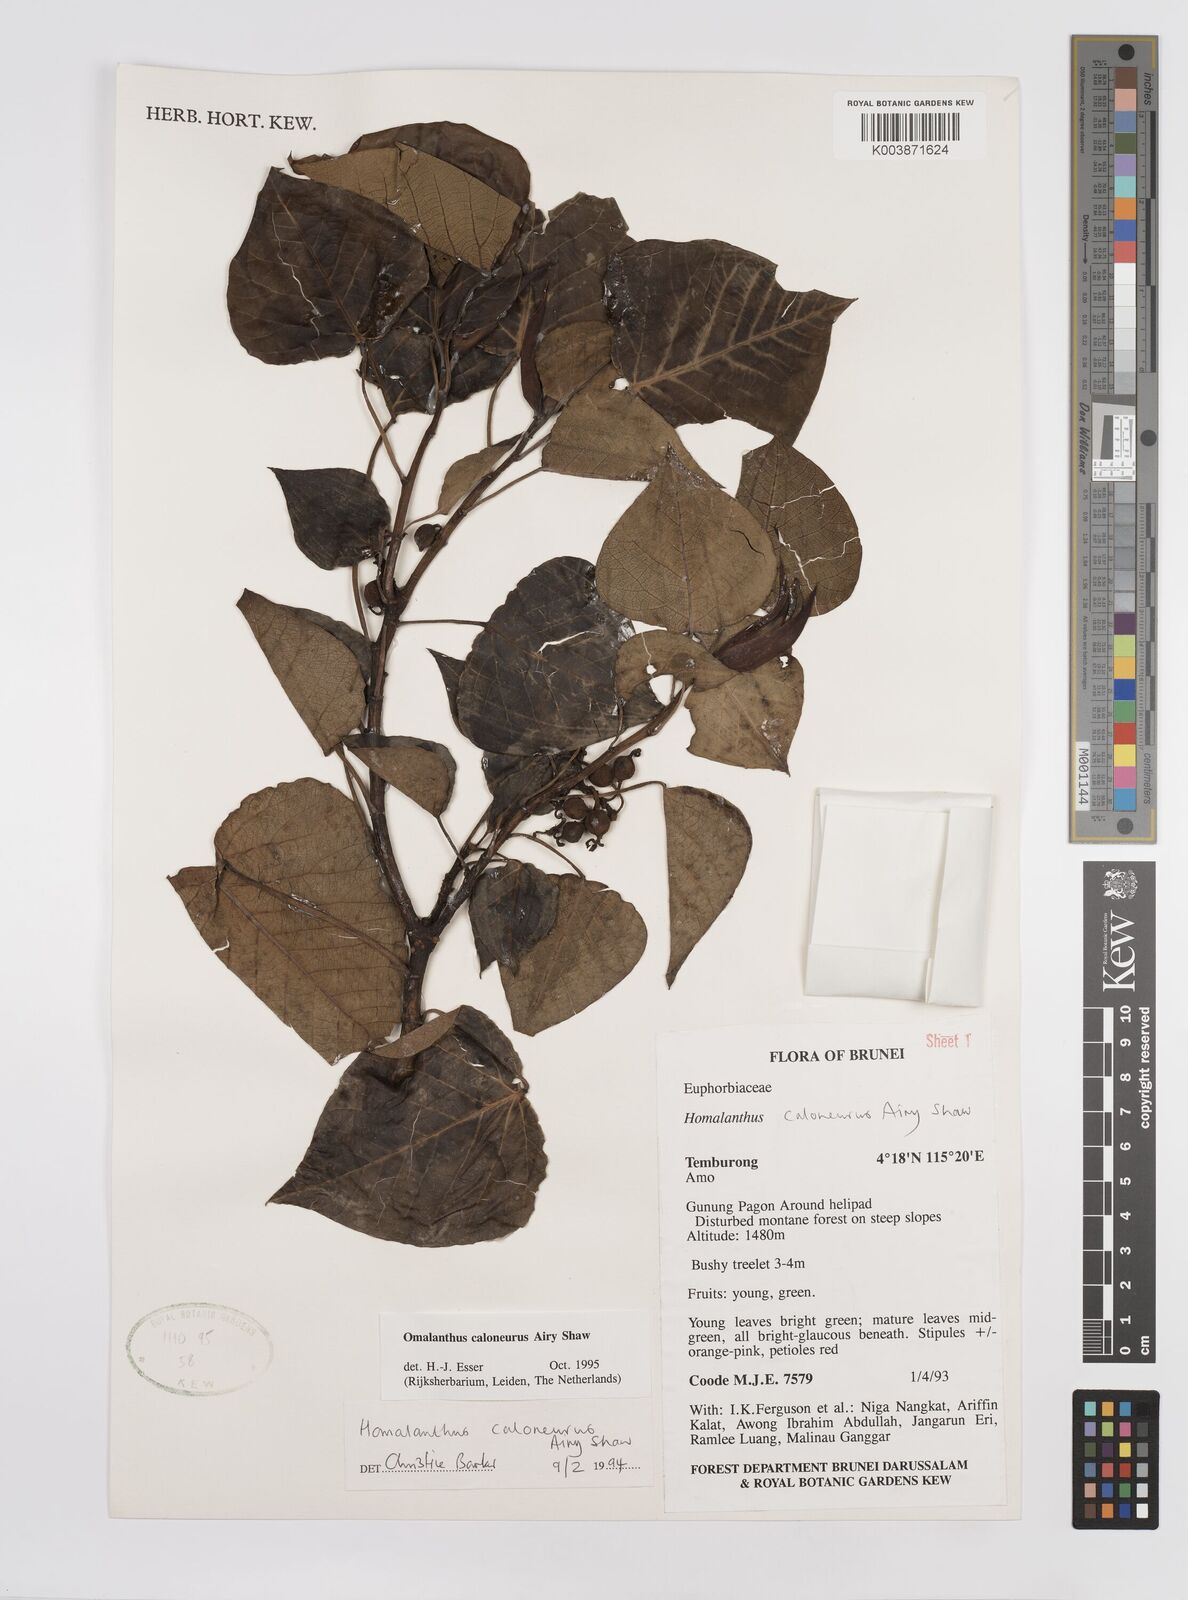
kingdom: Plantae
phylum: Tracheophyta
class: Magnoliopsida
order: Malpighiales
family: Euphorbiaceae
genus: Homalanthus
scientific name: Homalanthus caloneurus
